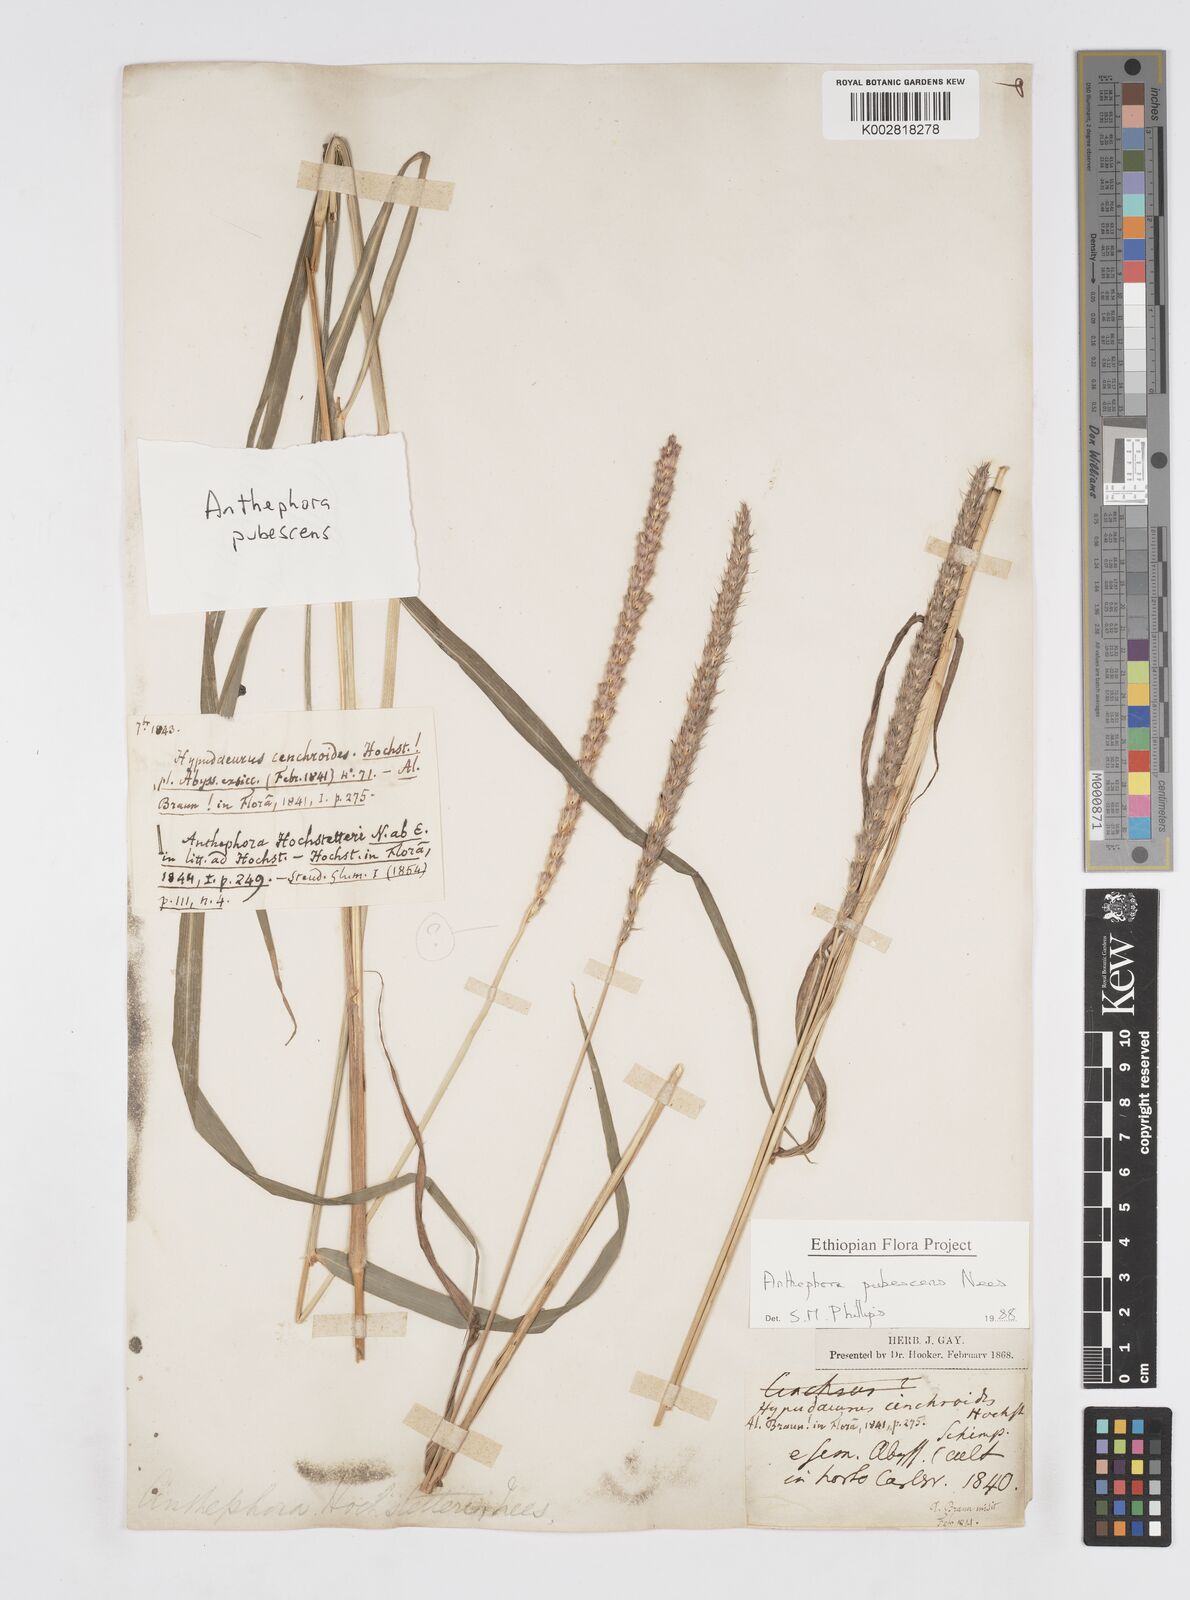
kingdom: Plantae
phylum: Tracheophyta
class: Liliopsida
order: Poales
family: Poaceae
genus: Anthephora
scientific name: Anthephora pubescens
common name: Wool grass
